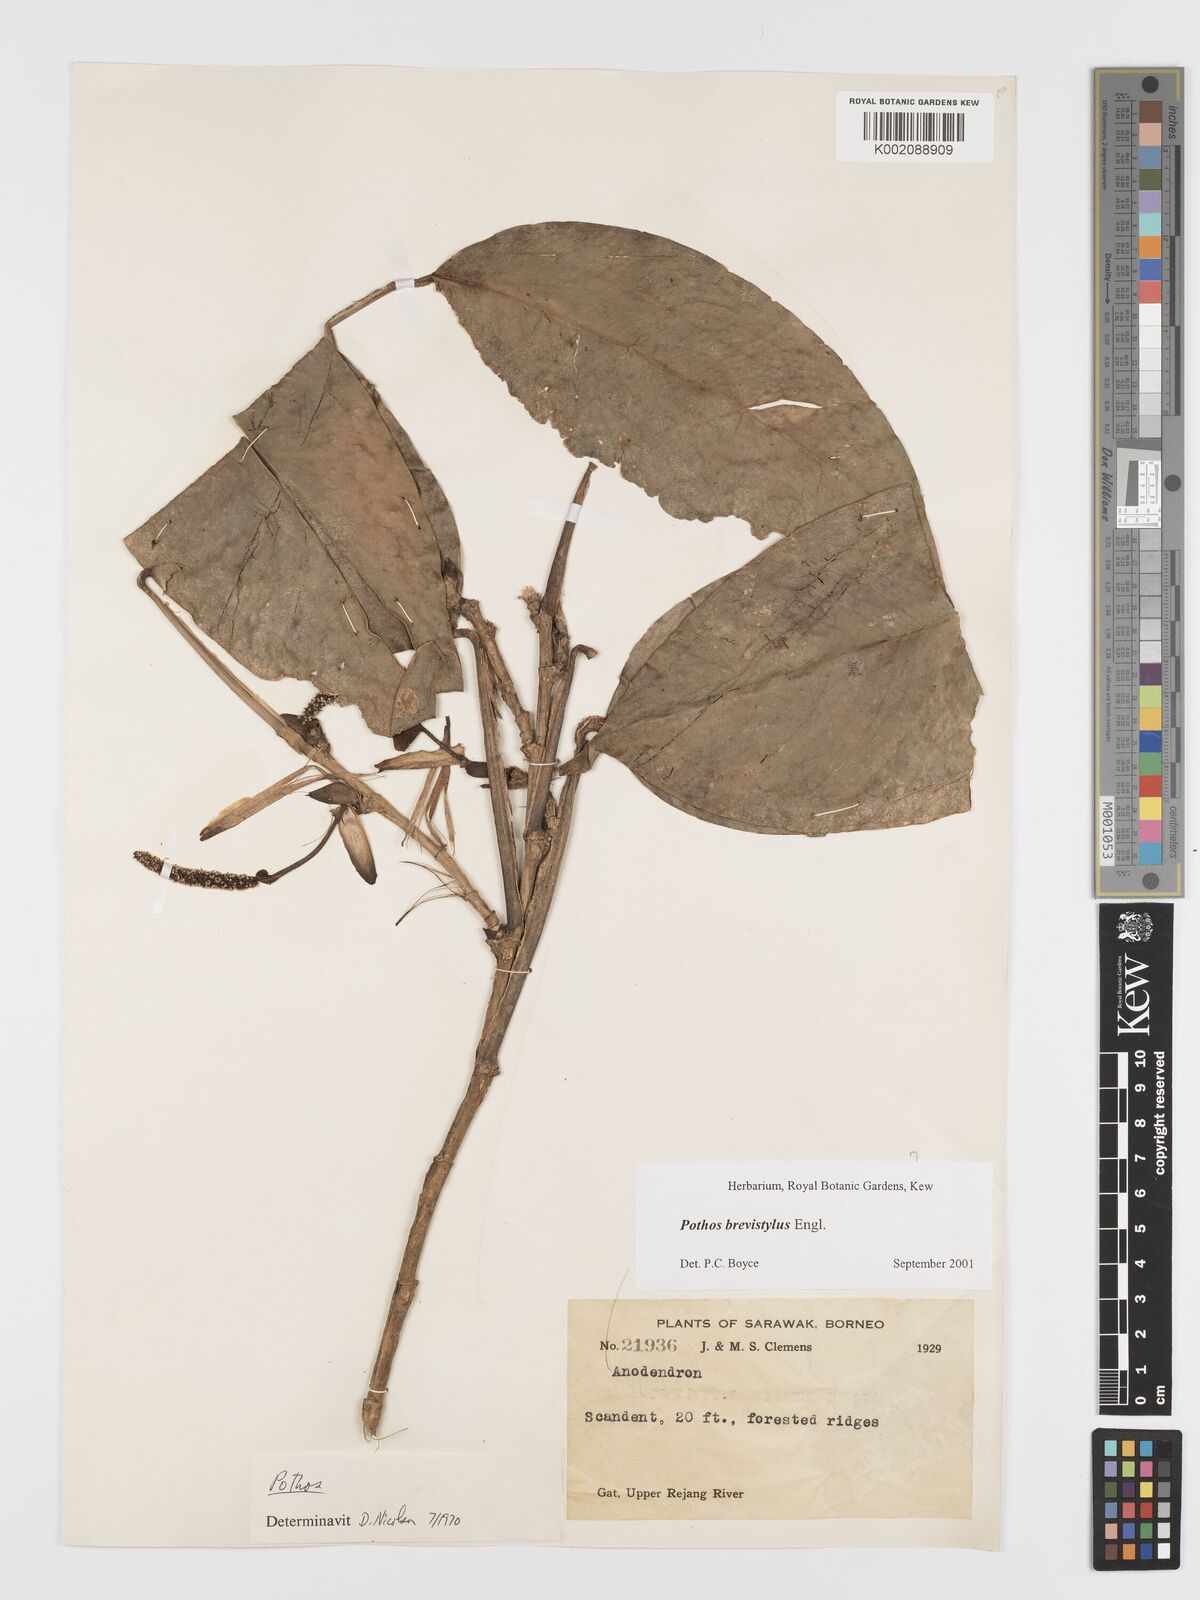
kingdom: Plantae
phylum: Tracheophyta
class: Liliopsida
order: Alismatales
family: Araceae
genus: Pothos
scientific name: Pothos brevistylus
